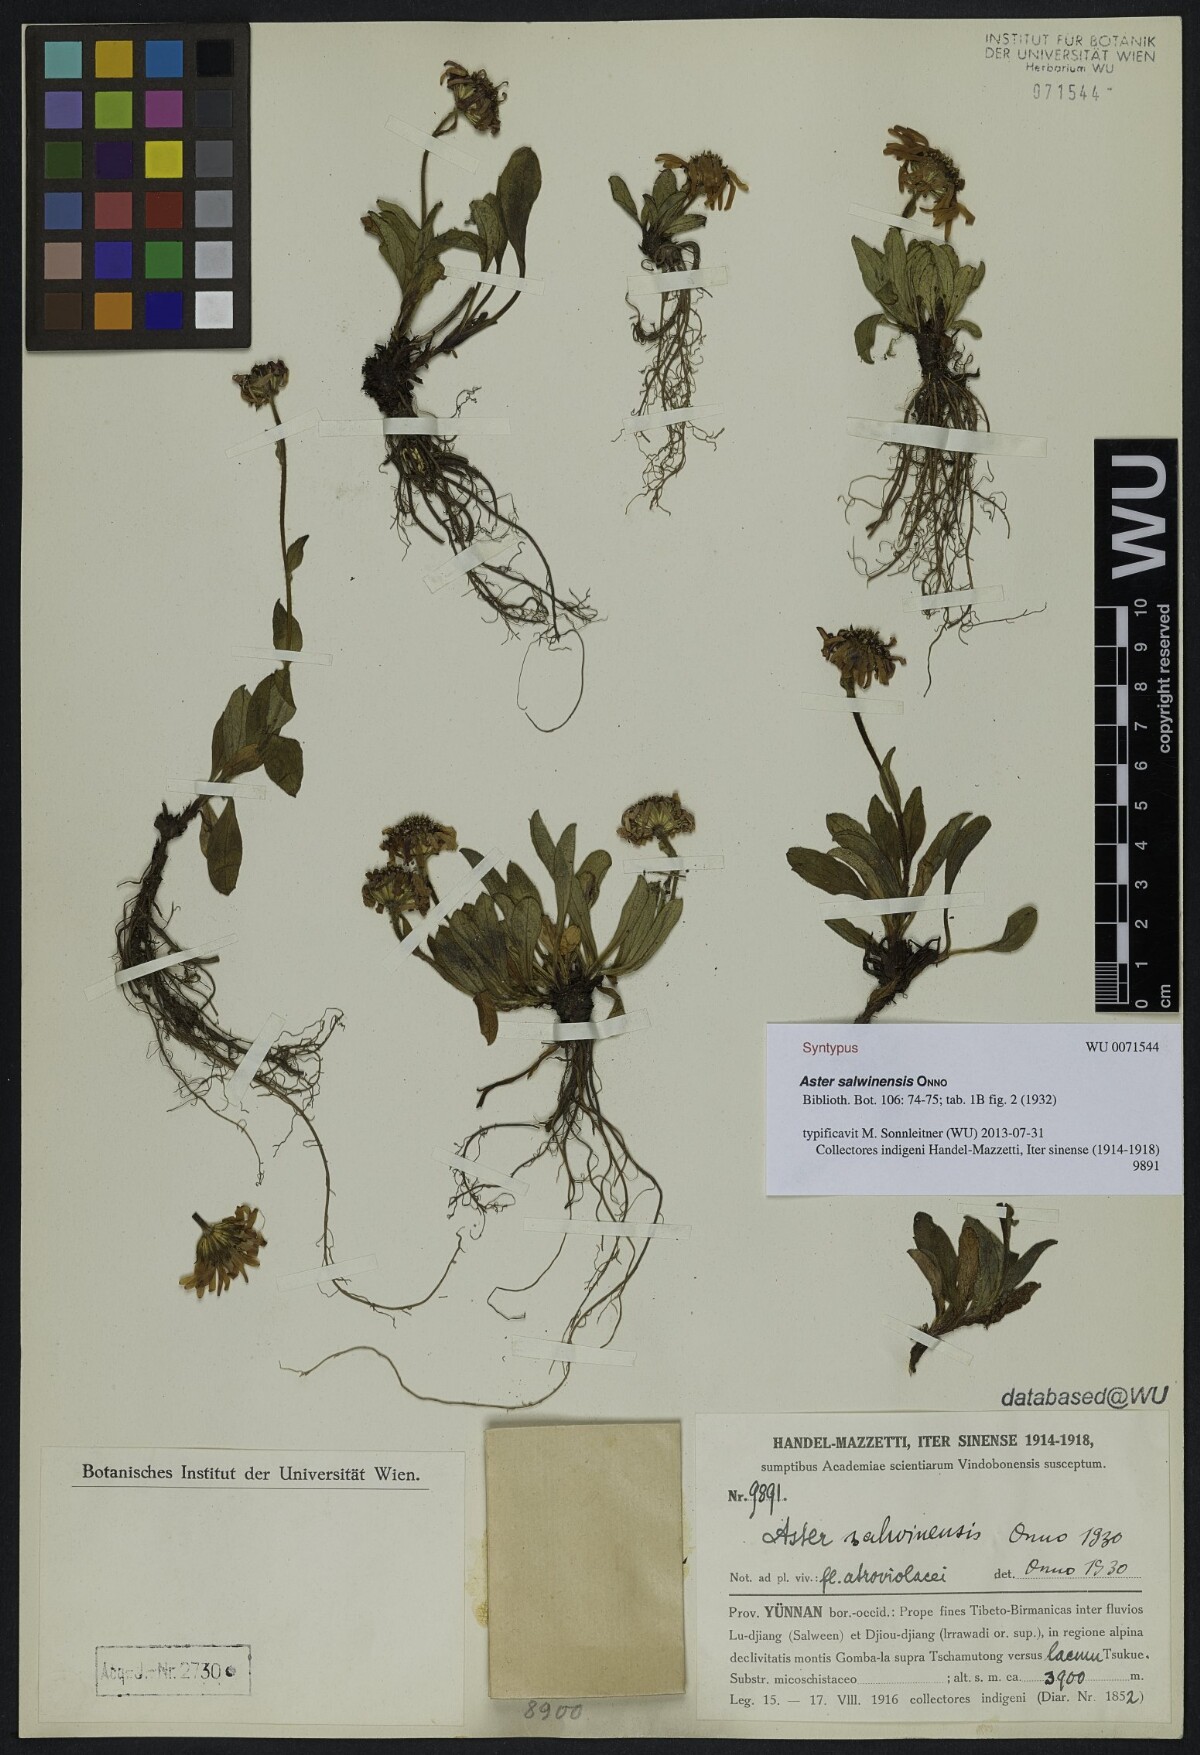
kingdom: Plantae
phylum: Tracheophyta
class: Magnoliopsida
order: Asterales
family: Asteraceae
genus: Tibetiodes
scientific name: Tibetiodes salwinensis
